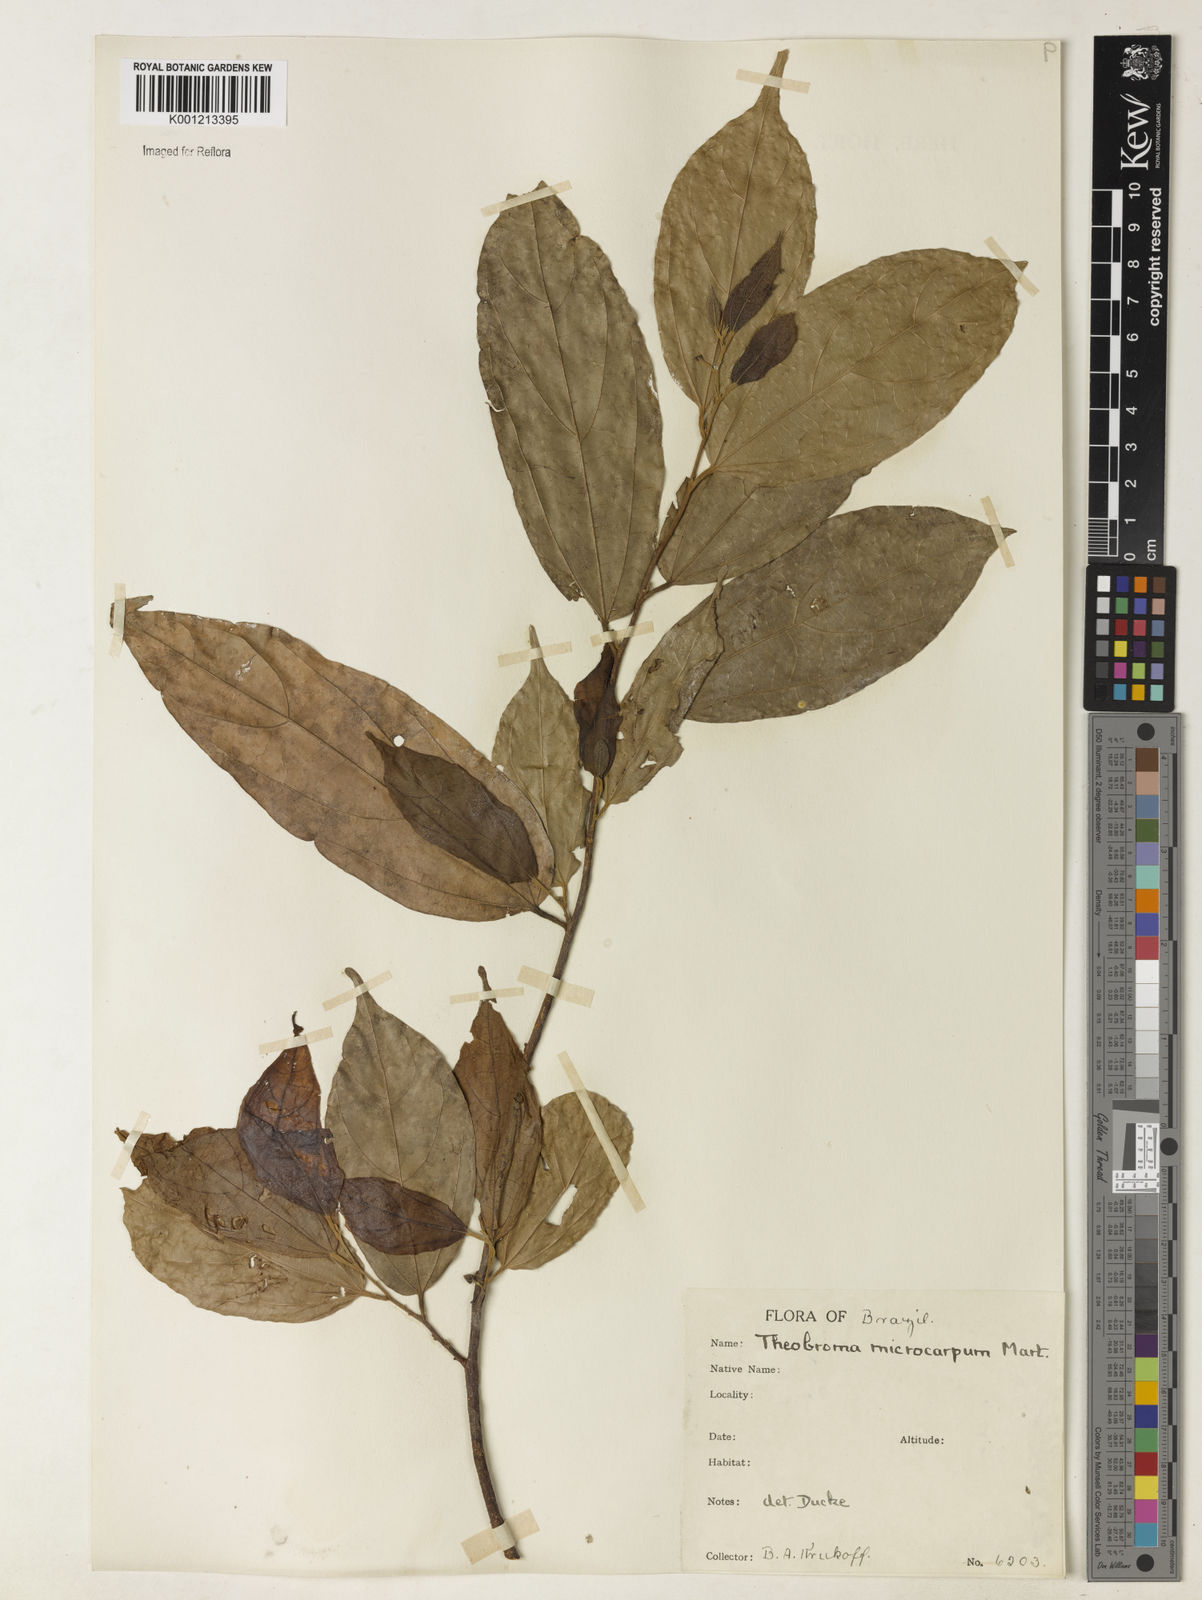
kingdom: Plantae
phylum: Tracheophyta
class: Magnoliopsida
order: Malvales
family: Malvaceae
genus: Theobroma
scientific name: Theobroma microcarpum
